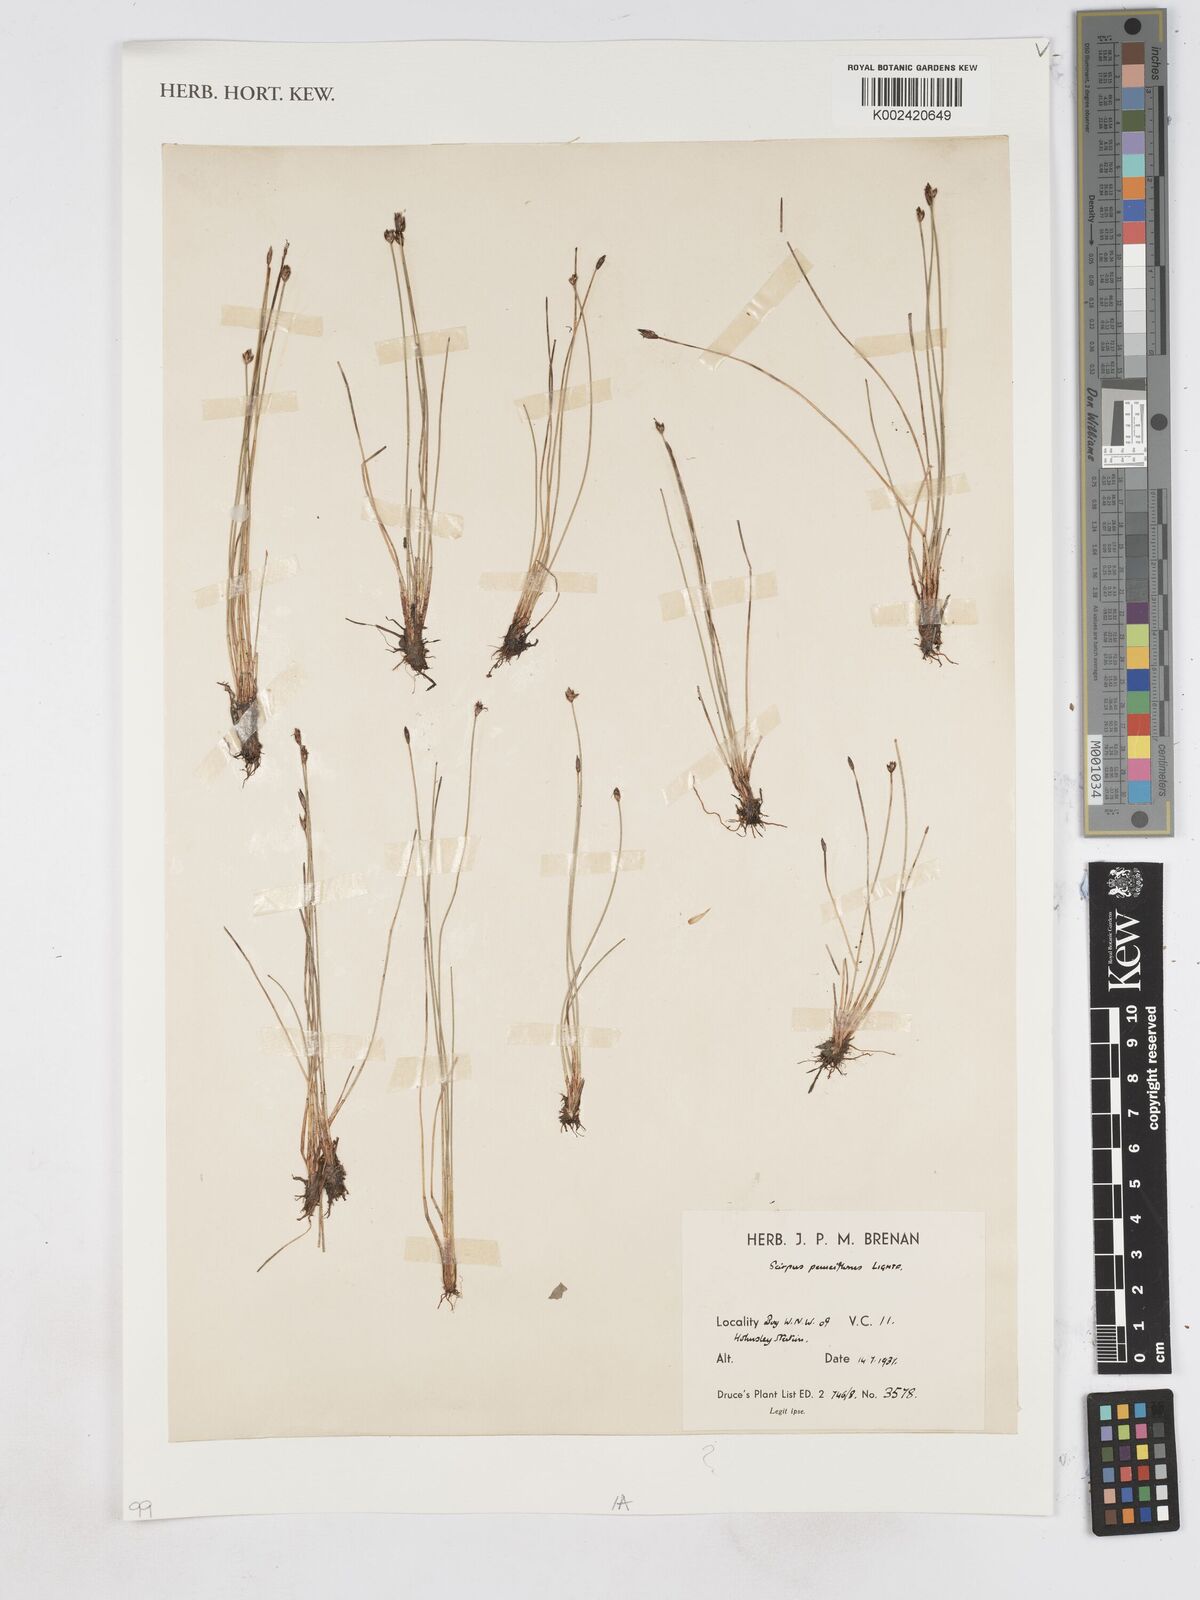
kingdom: Plantae
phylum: Tracheophyta
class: Liliopsida
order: Poales
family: Cyperaceae
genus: Eleocharis
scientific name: Eleocharis quinqueflora
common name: Few-flowered spike-rush
